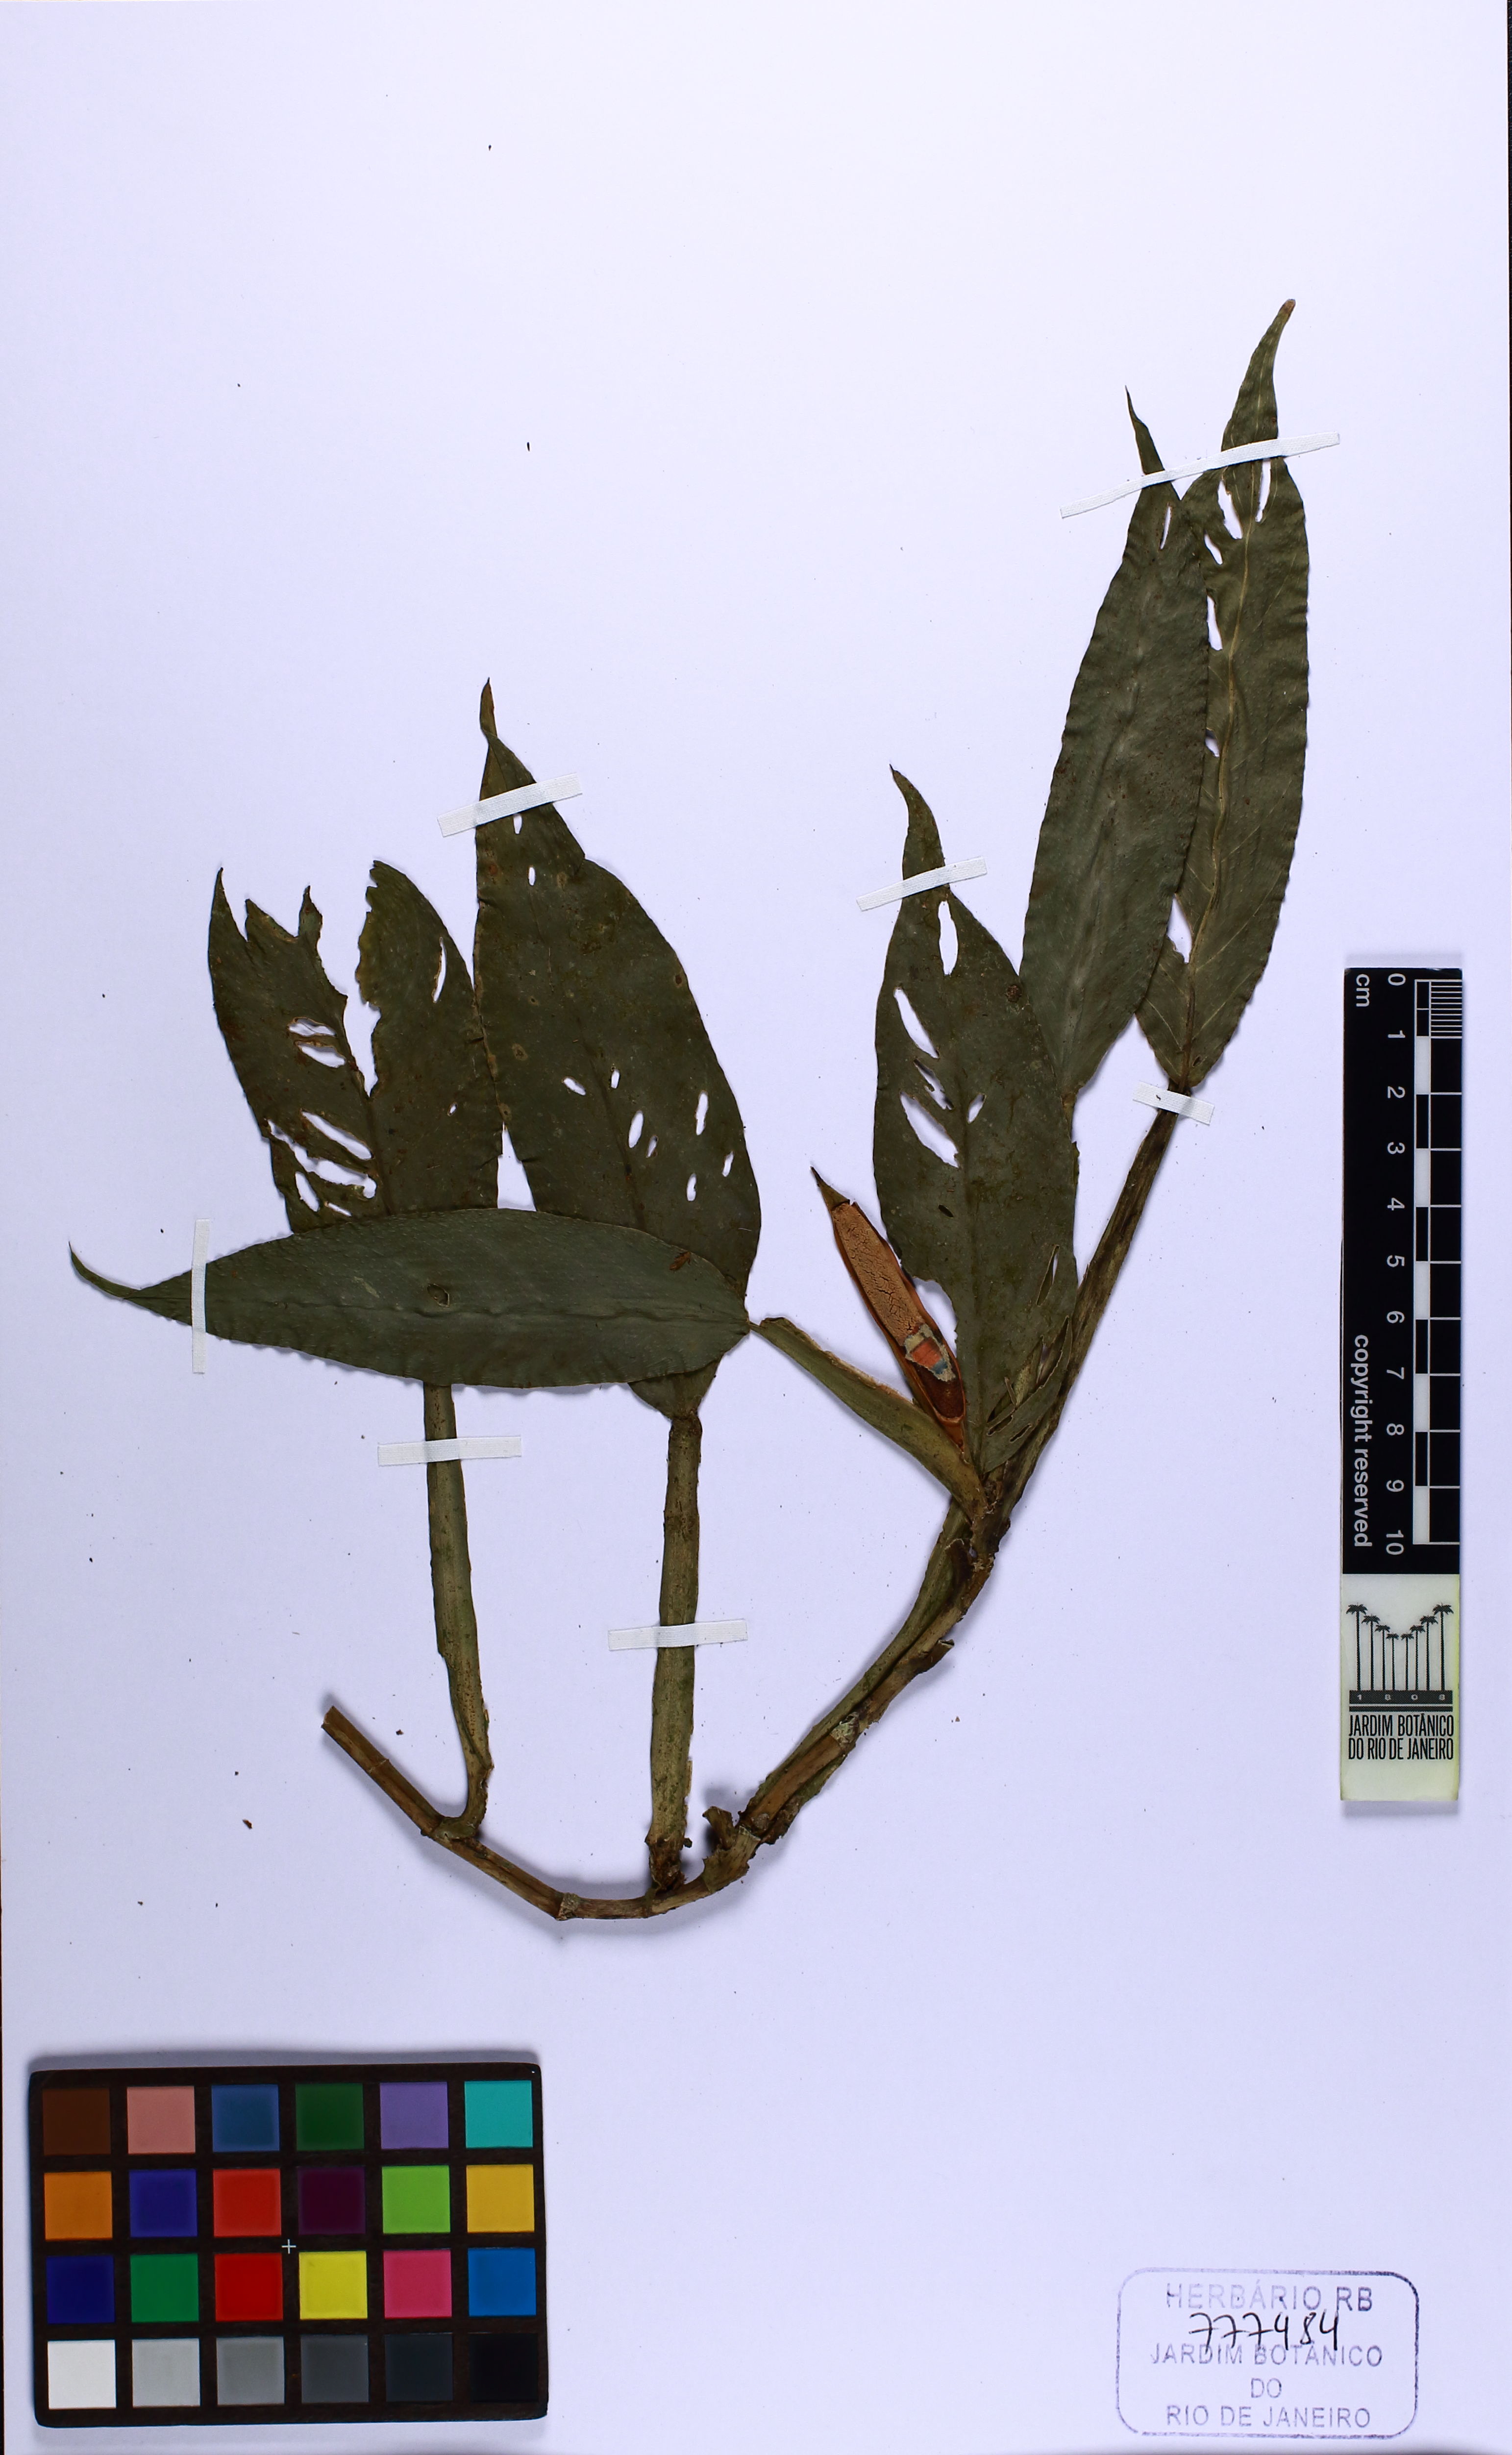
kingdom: Plantae
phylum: Tracheophyta
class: Liliopsida
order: Alismatales
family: Araceae
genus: Philodendron
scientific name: Philodendron propinquum
